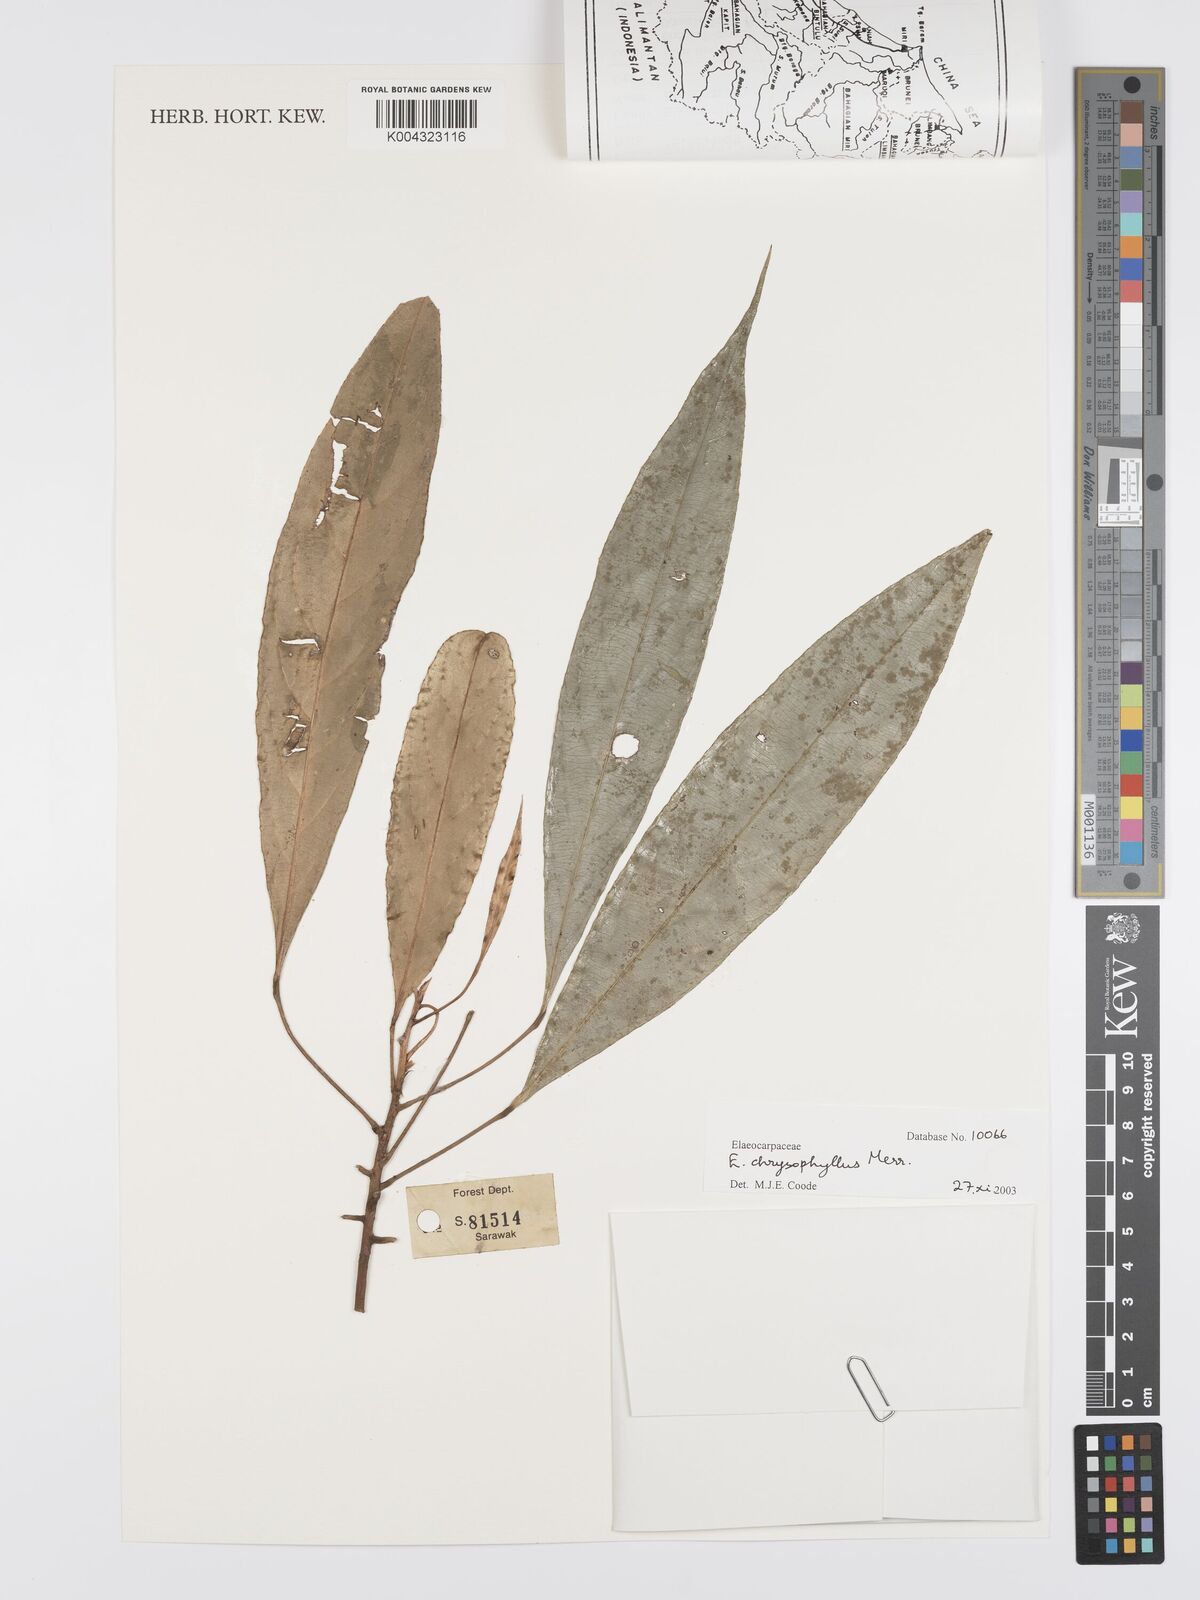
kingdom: Plantae
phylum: Tracheophyta
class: Magnoliopsida
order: Oxalidales
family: Elaeocarpaceae
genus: Elaeocarpus
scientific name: Elaeocarpus chrysophyllus
